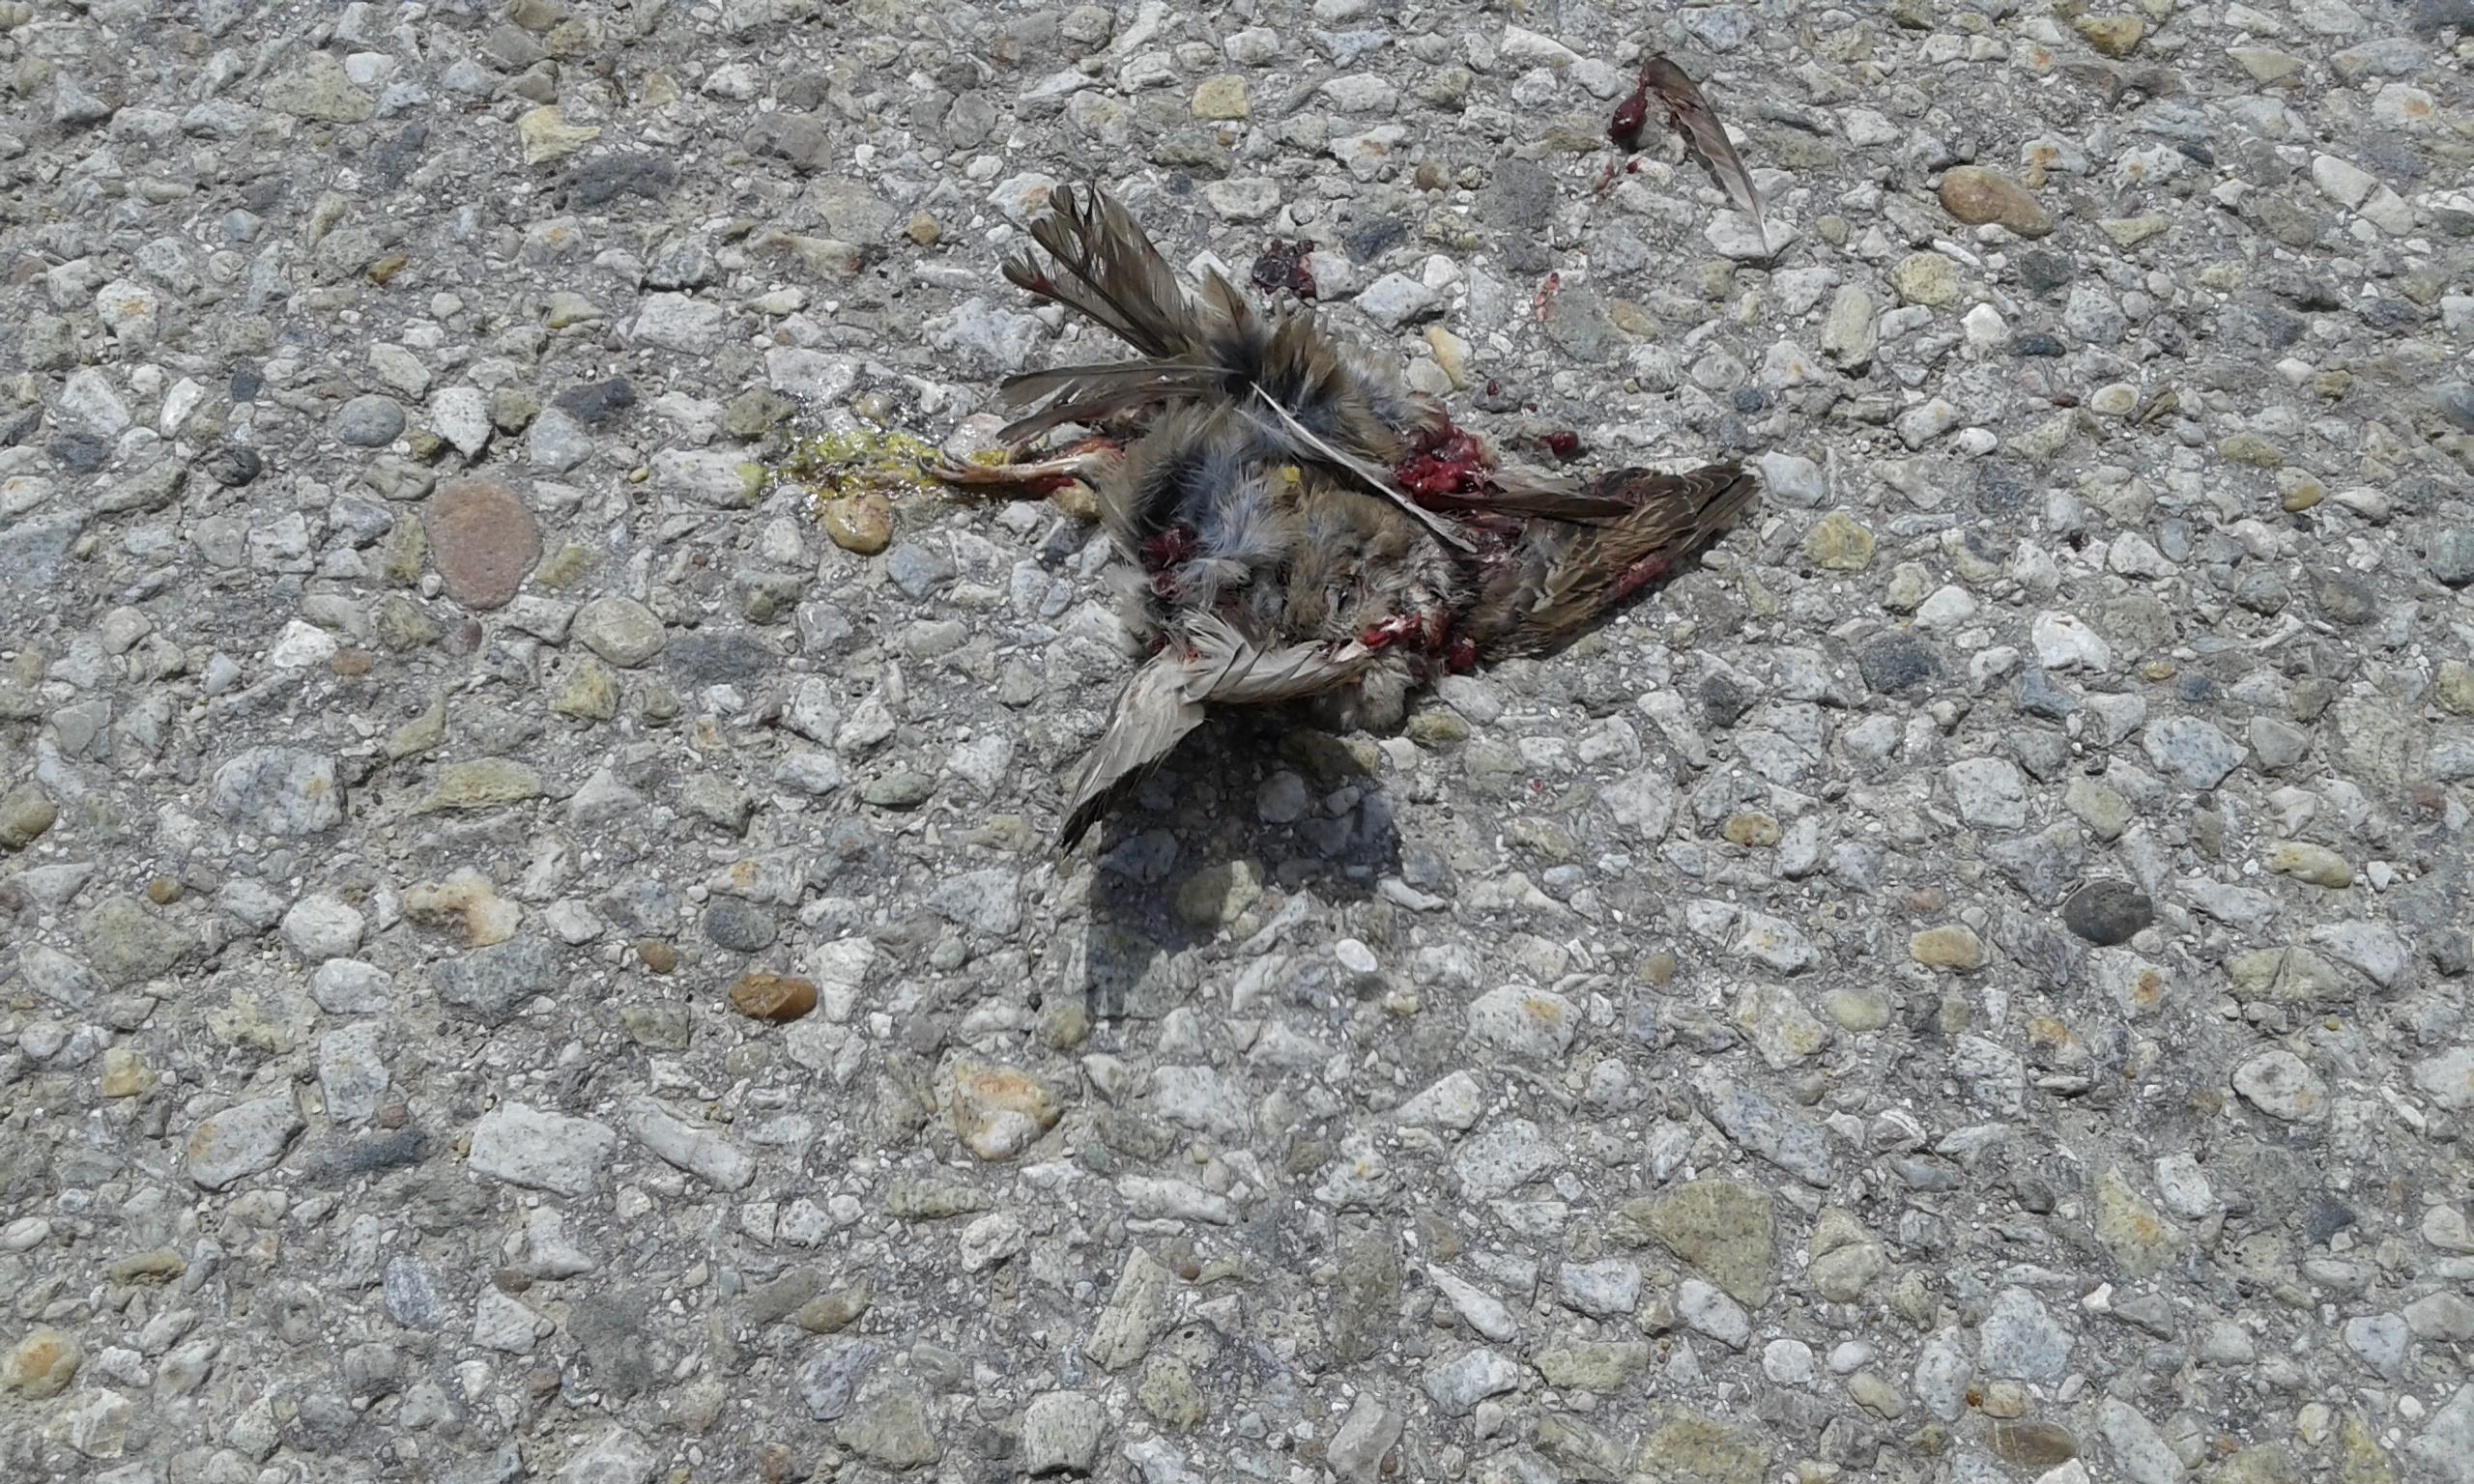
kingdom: Animalia
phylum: Chordata
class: Aves
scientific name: Aves
